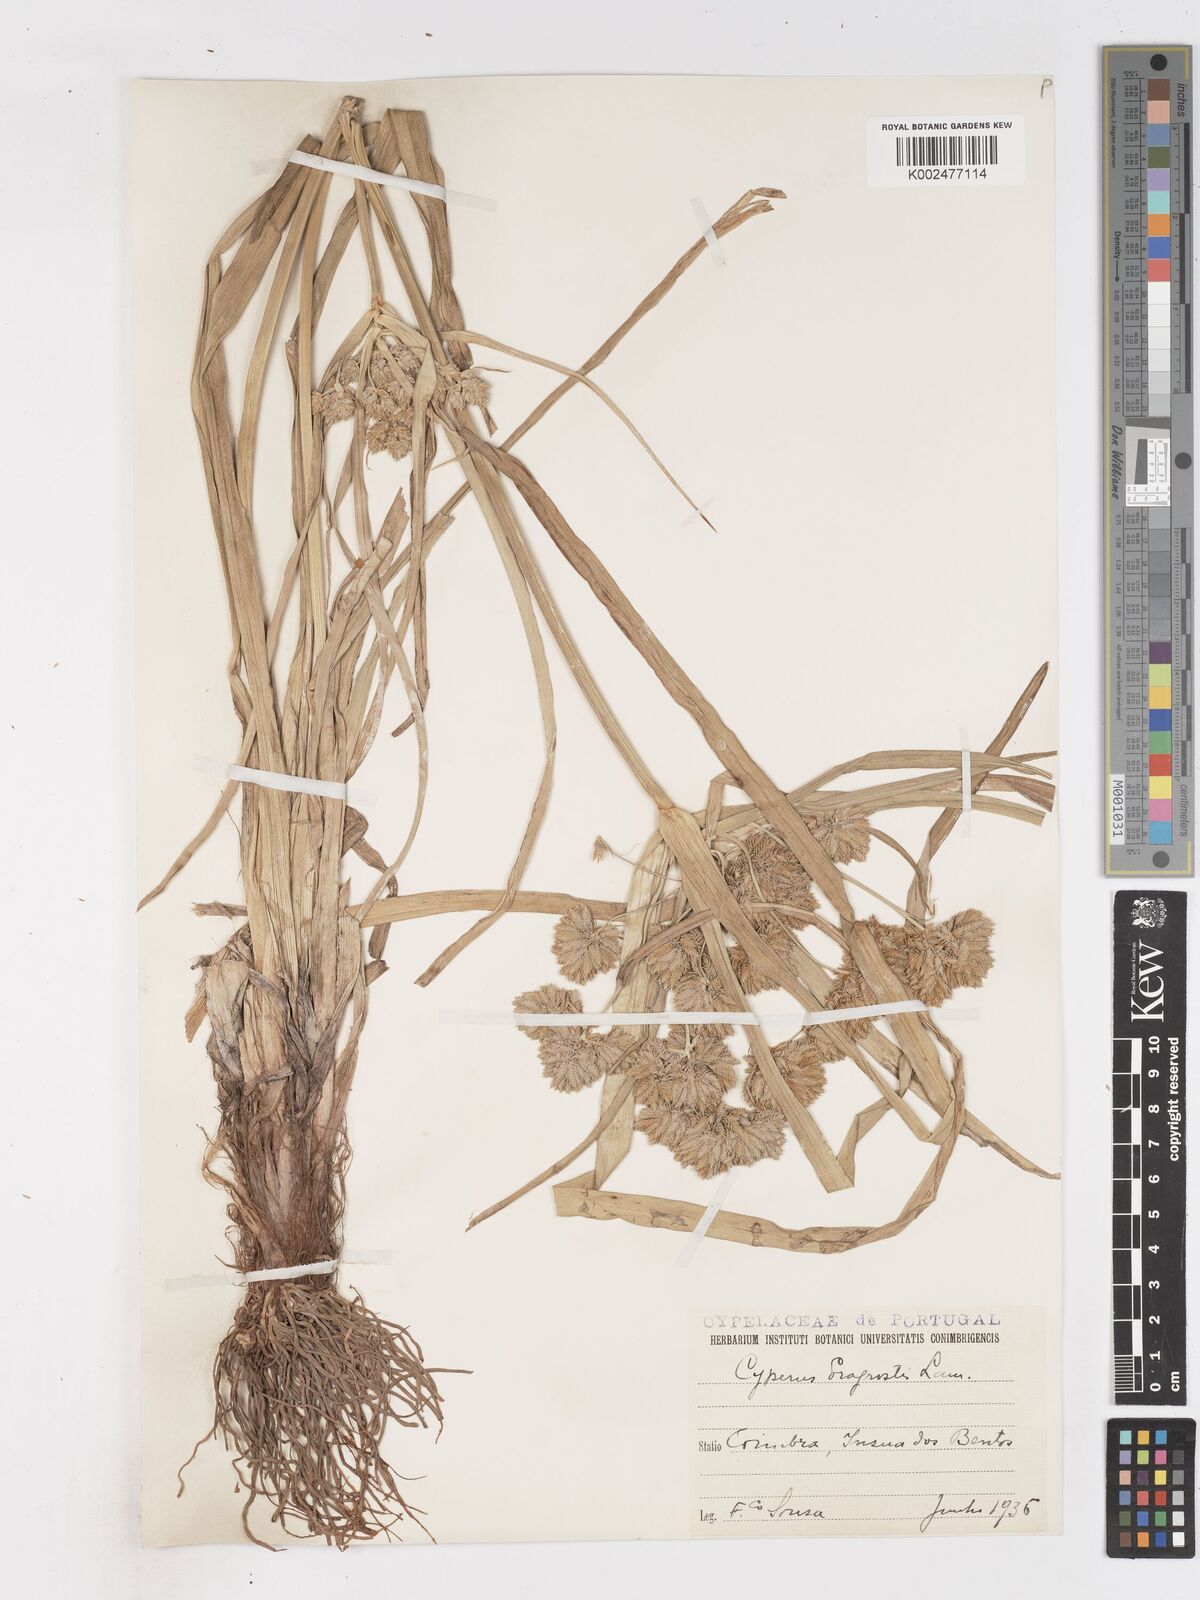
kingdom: Plantae
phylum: Tracheophyta
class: Liliopsida
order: Poales
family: Cyperaceae
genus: Cyperus
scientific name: Cyperus eragrostis
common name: Tall flatsedge
